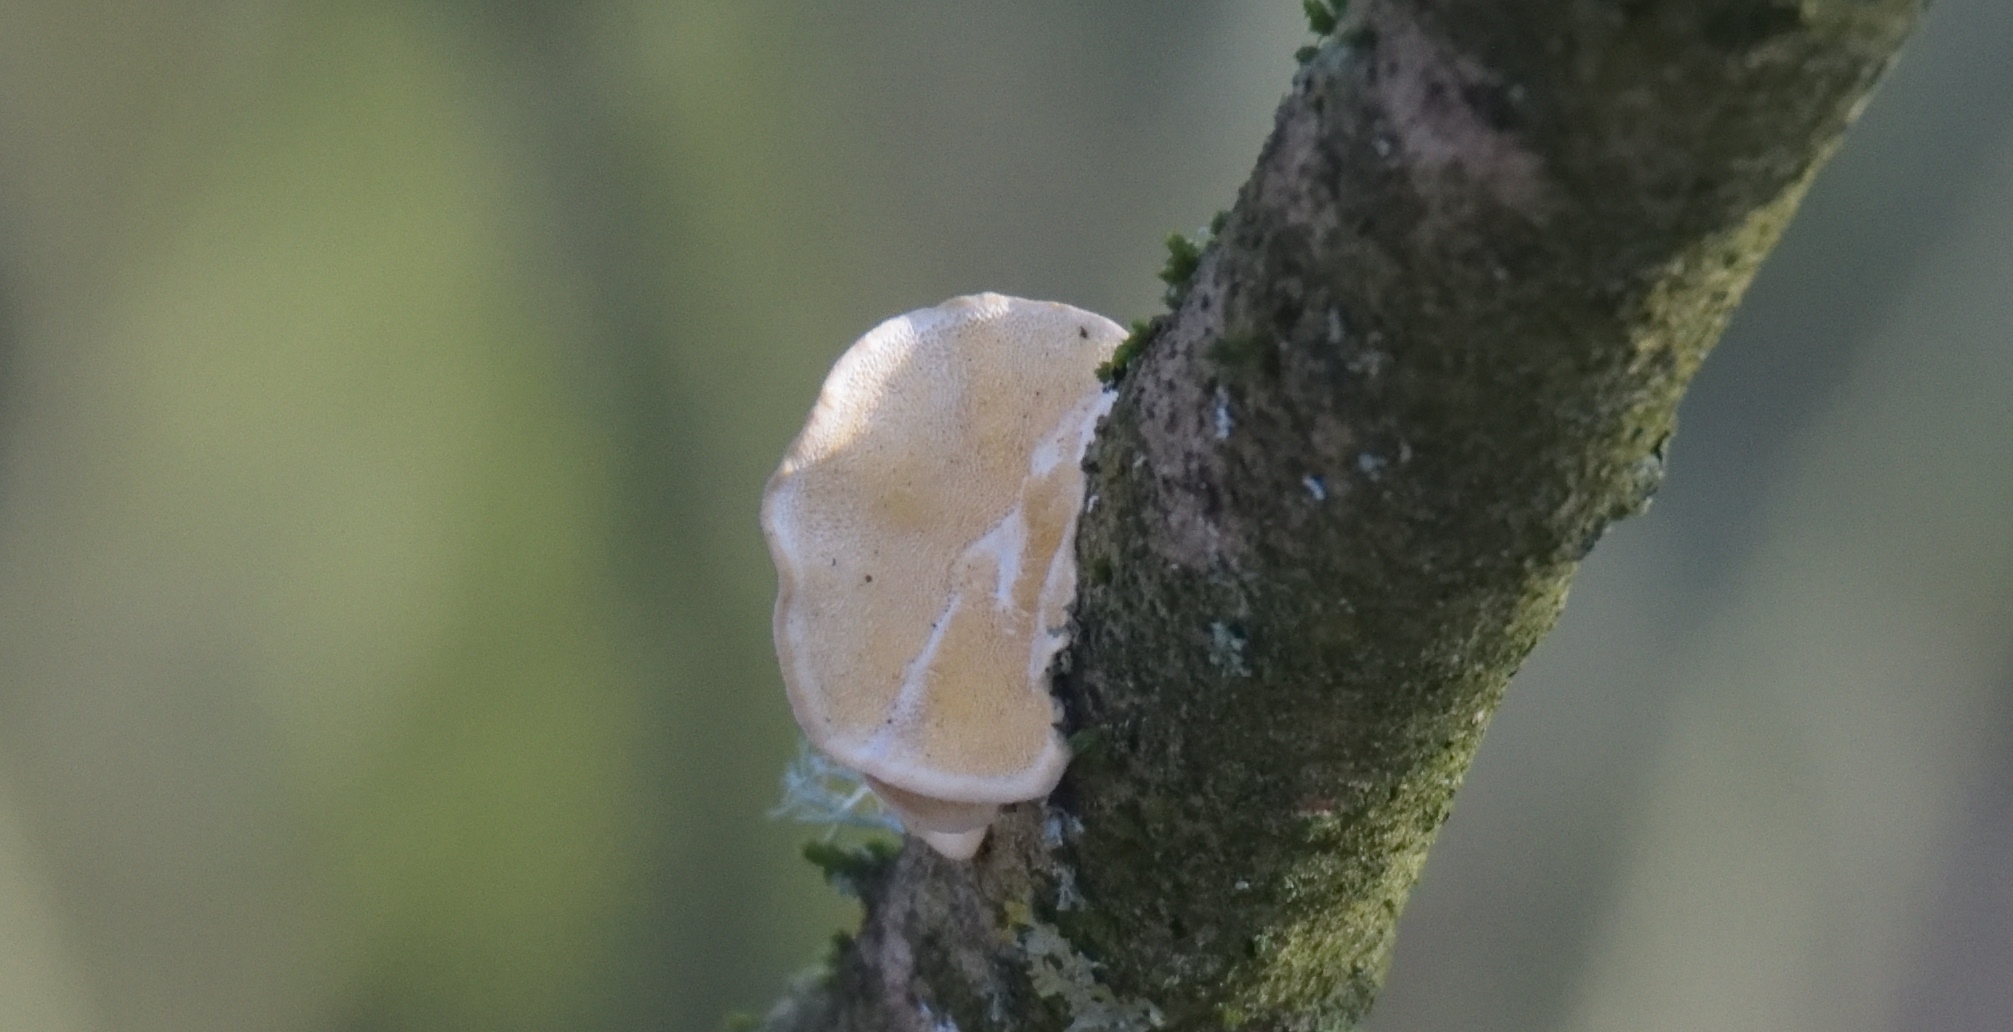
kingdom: Fungi
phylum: Basidiomycota
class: Agaricomycetes
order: Polyporales
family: Polyporaceae
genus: Trametes
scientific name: Trametes
